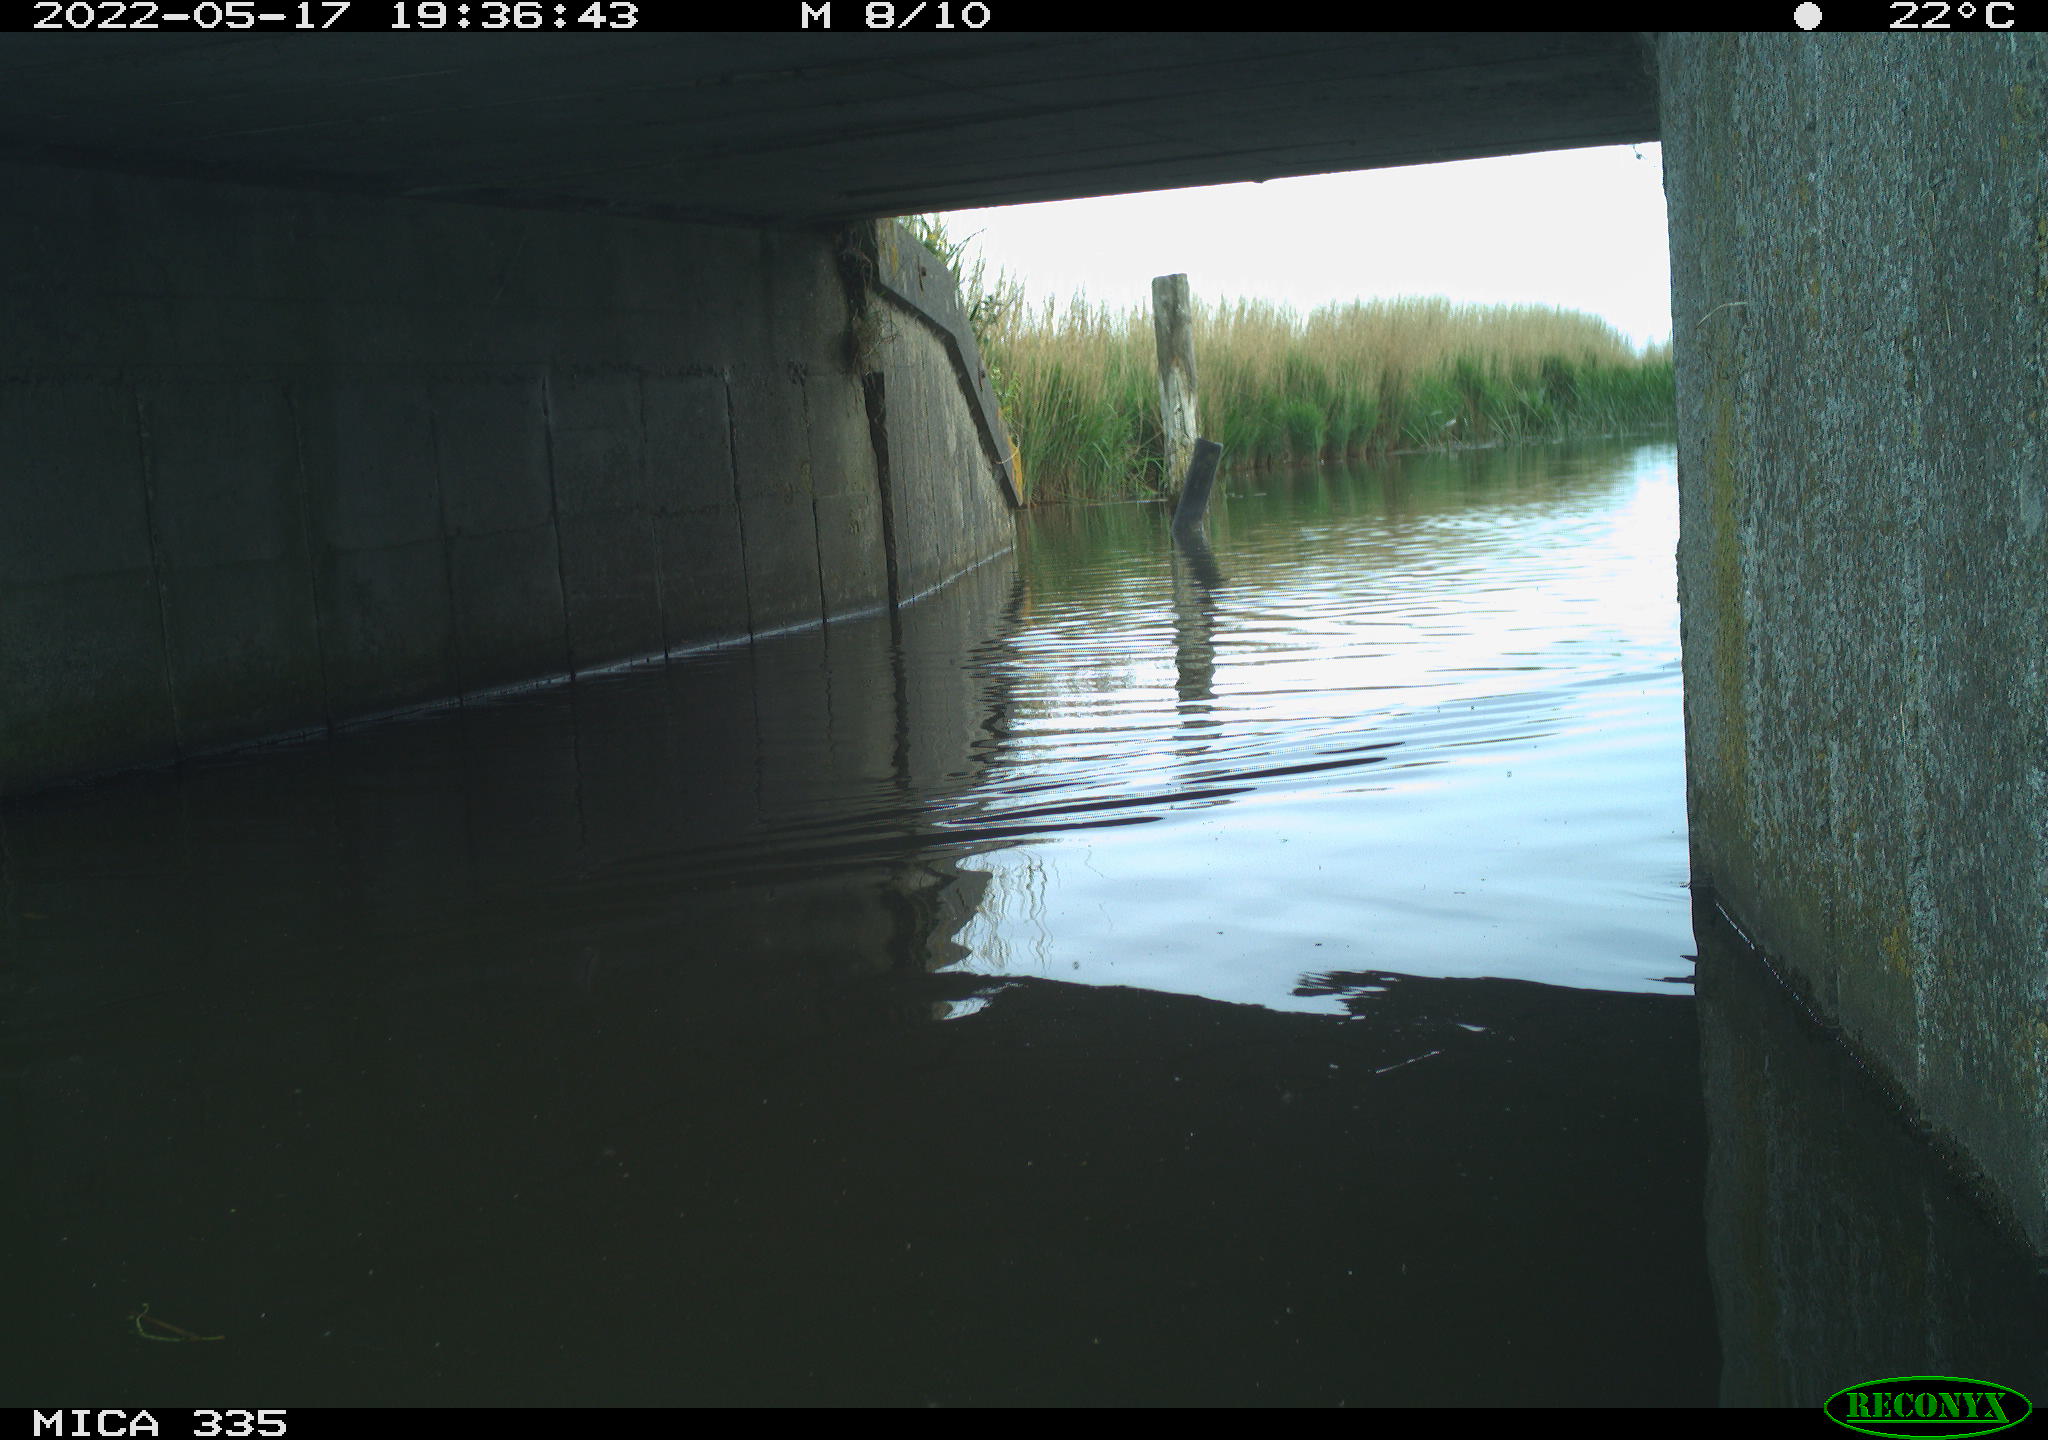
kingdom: Animalia
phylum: Chordata
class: Aves
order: Anseriformes
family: Anatidae
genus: Anas
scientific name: Anas platyrhynchos
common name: Mallard
